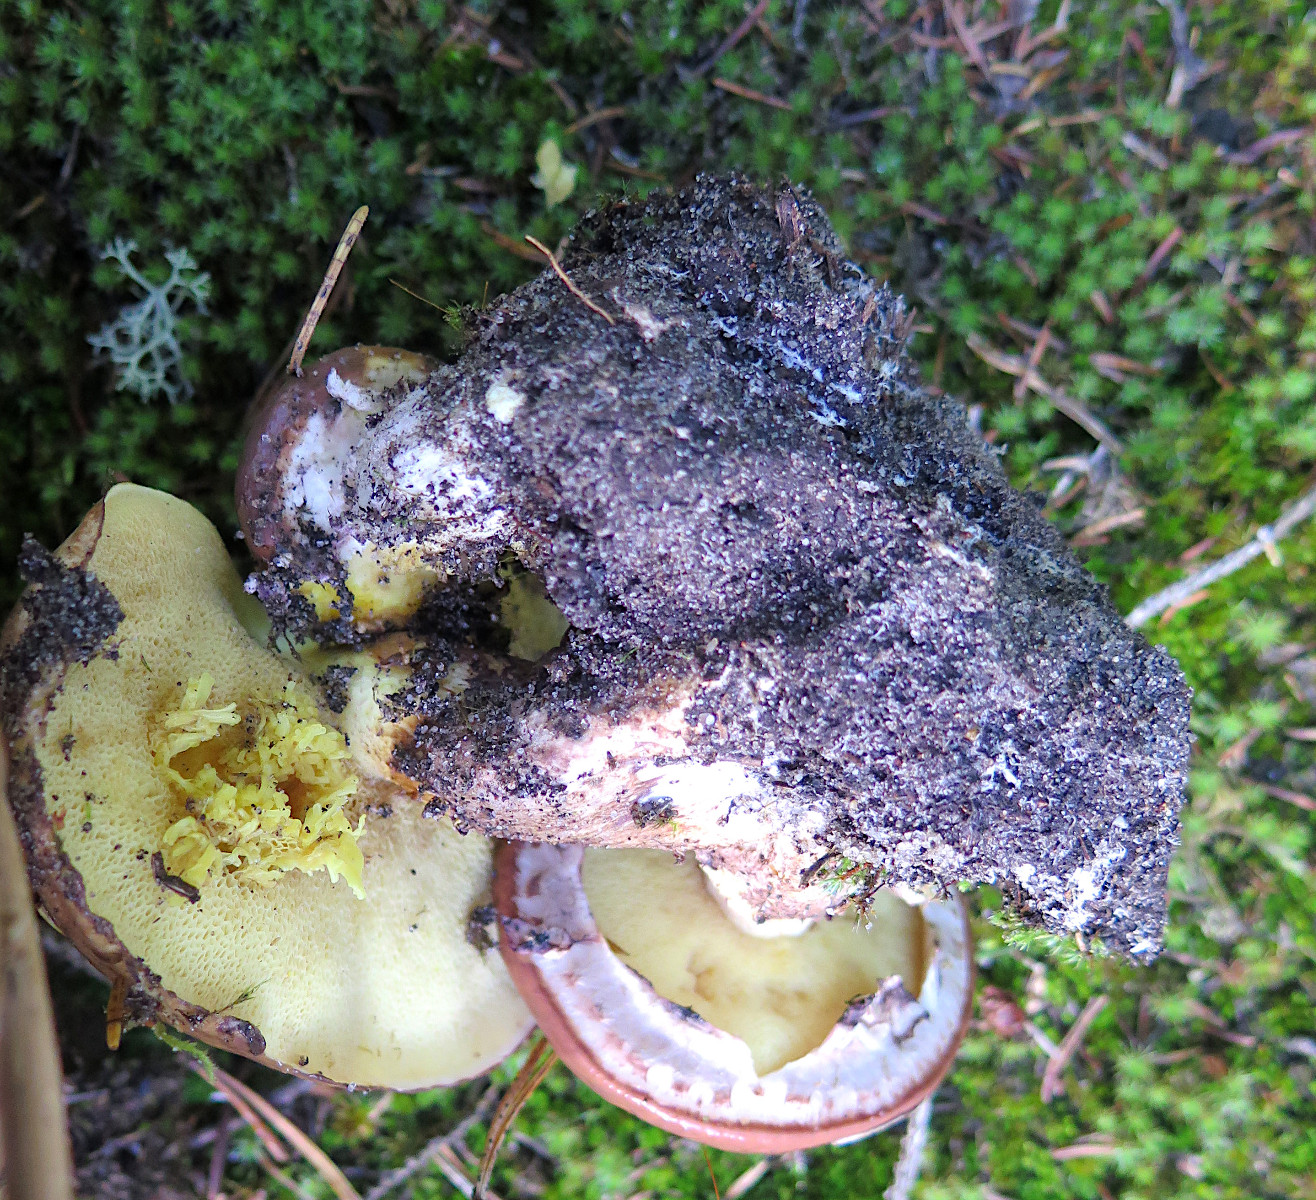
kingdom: Fungi
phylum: Basidiomycota
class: Agaricomycetes
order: Boletales
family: Suillaceae
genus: Suillus
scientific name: Suillus luteus
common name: brungul slimrørhat
